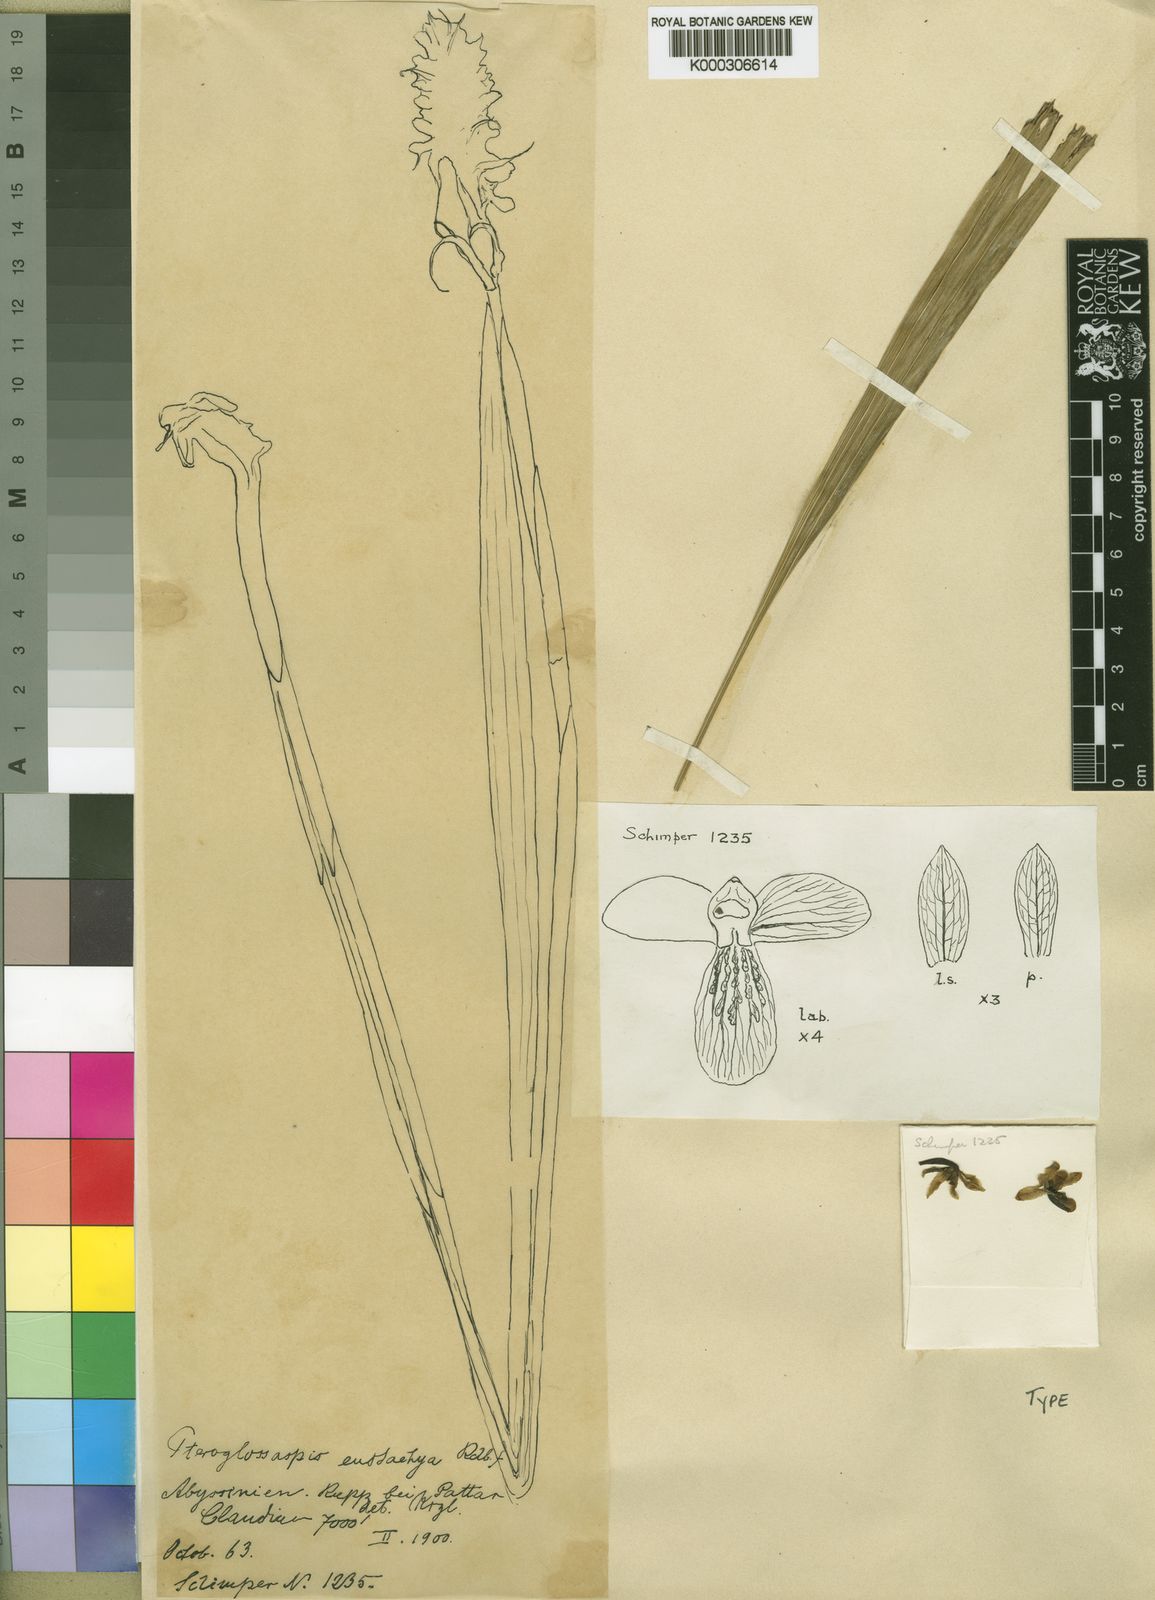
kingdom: Plantae
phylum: Tracheophyta
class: Liliopsida
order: Asparagales
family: Orchidaceae
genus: Eulophia
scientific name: Eulophia eustachya
